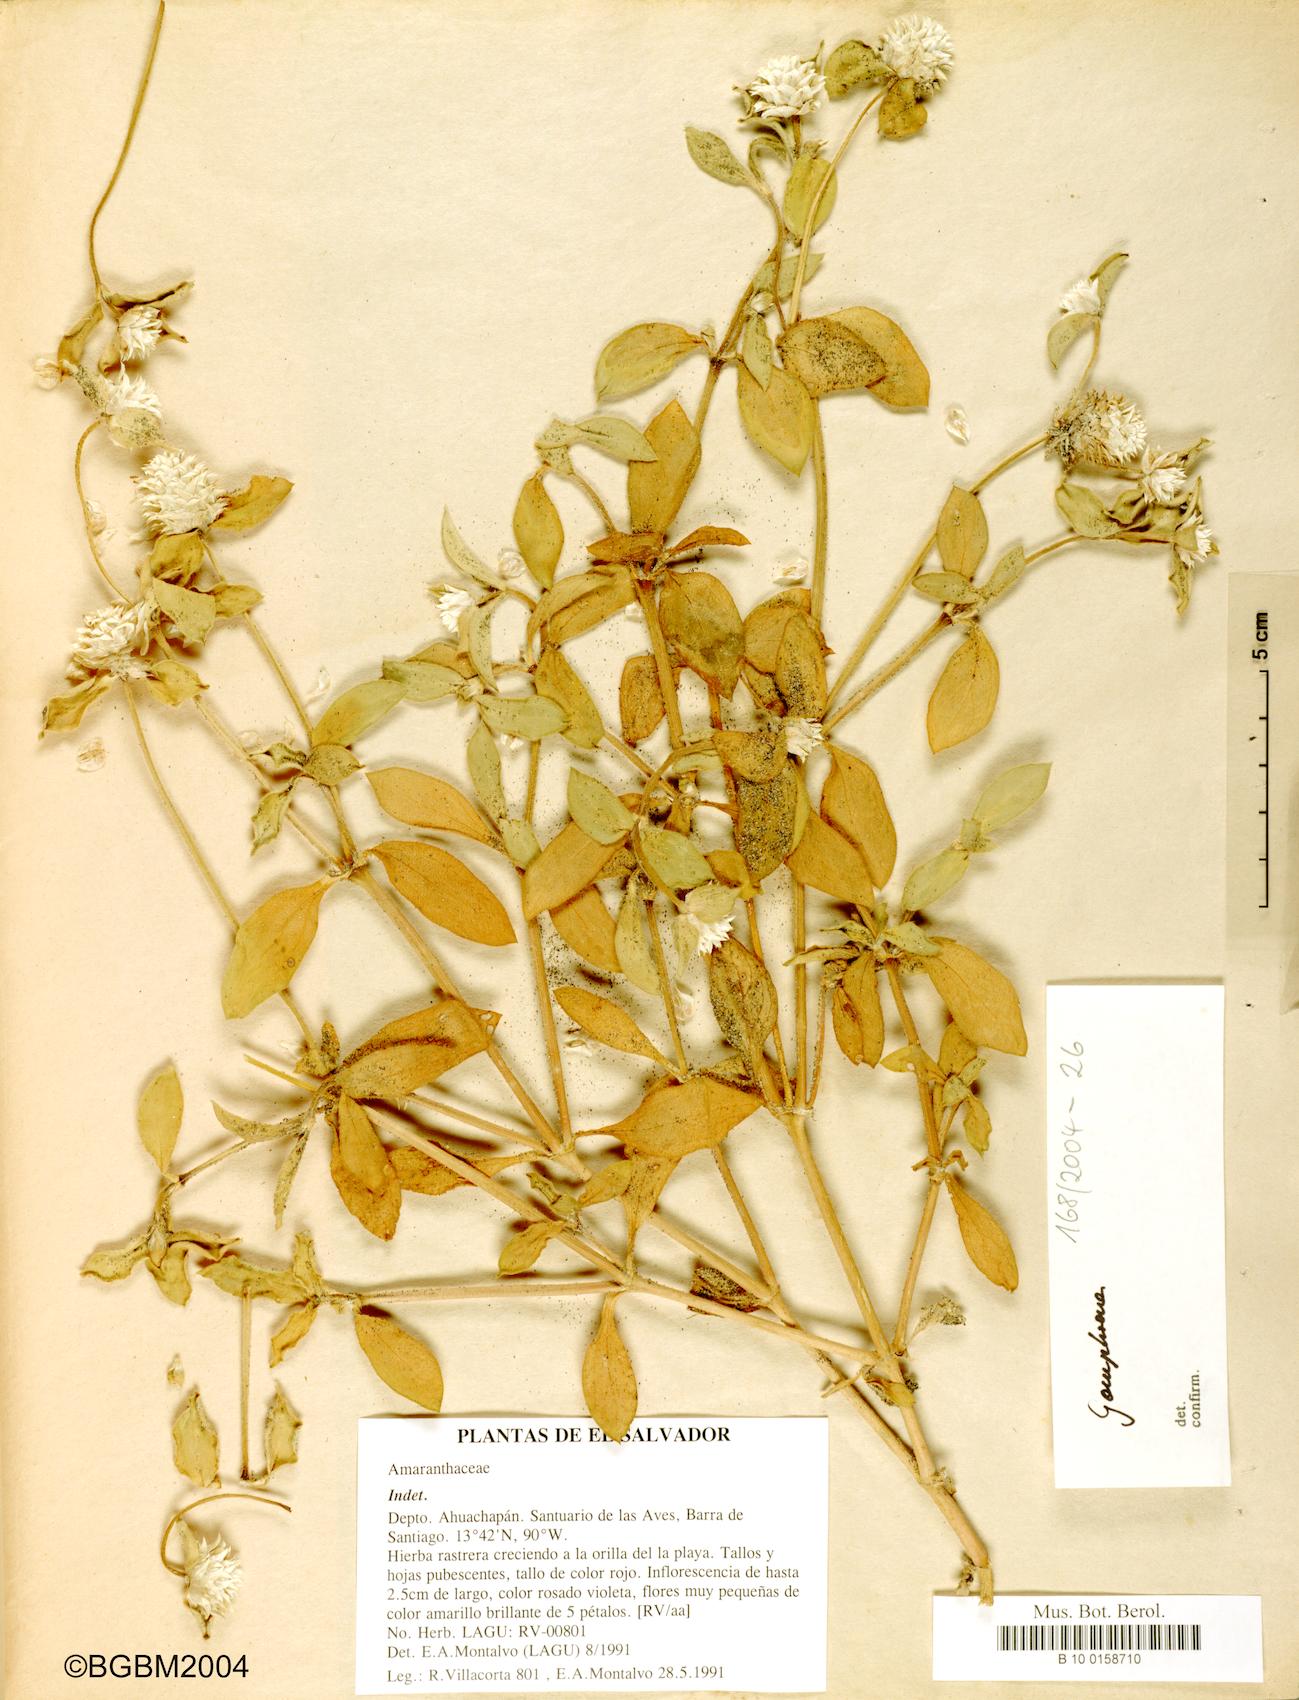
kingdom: Plantae
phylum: Tracheophyta
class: Magnoliopsida
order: Caryophyllales
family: Amaranthaceae
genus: Gomphrena
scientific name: Gomphrena
